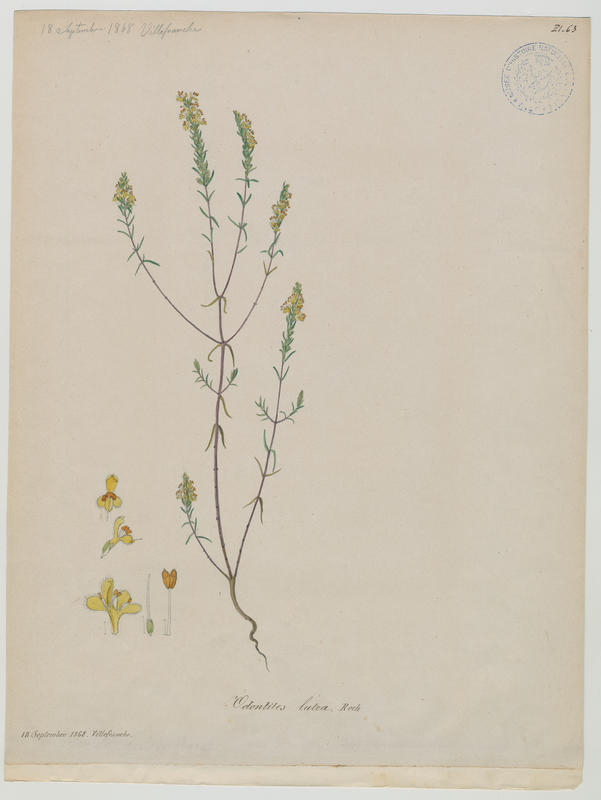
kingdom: Plantae
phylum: Tracheophyta
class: Magnoliopsida
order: Lamiales
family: Orobanchaceae
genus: Odontites
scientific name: Odontites luteus
